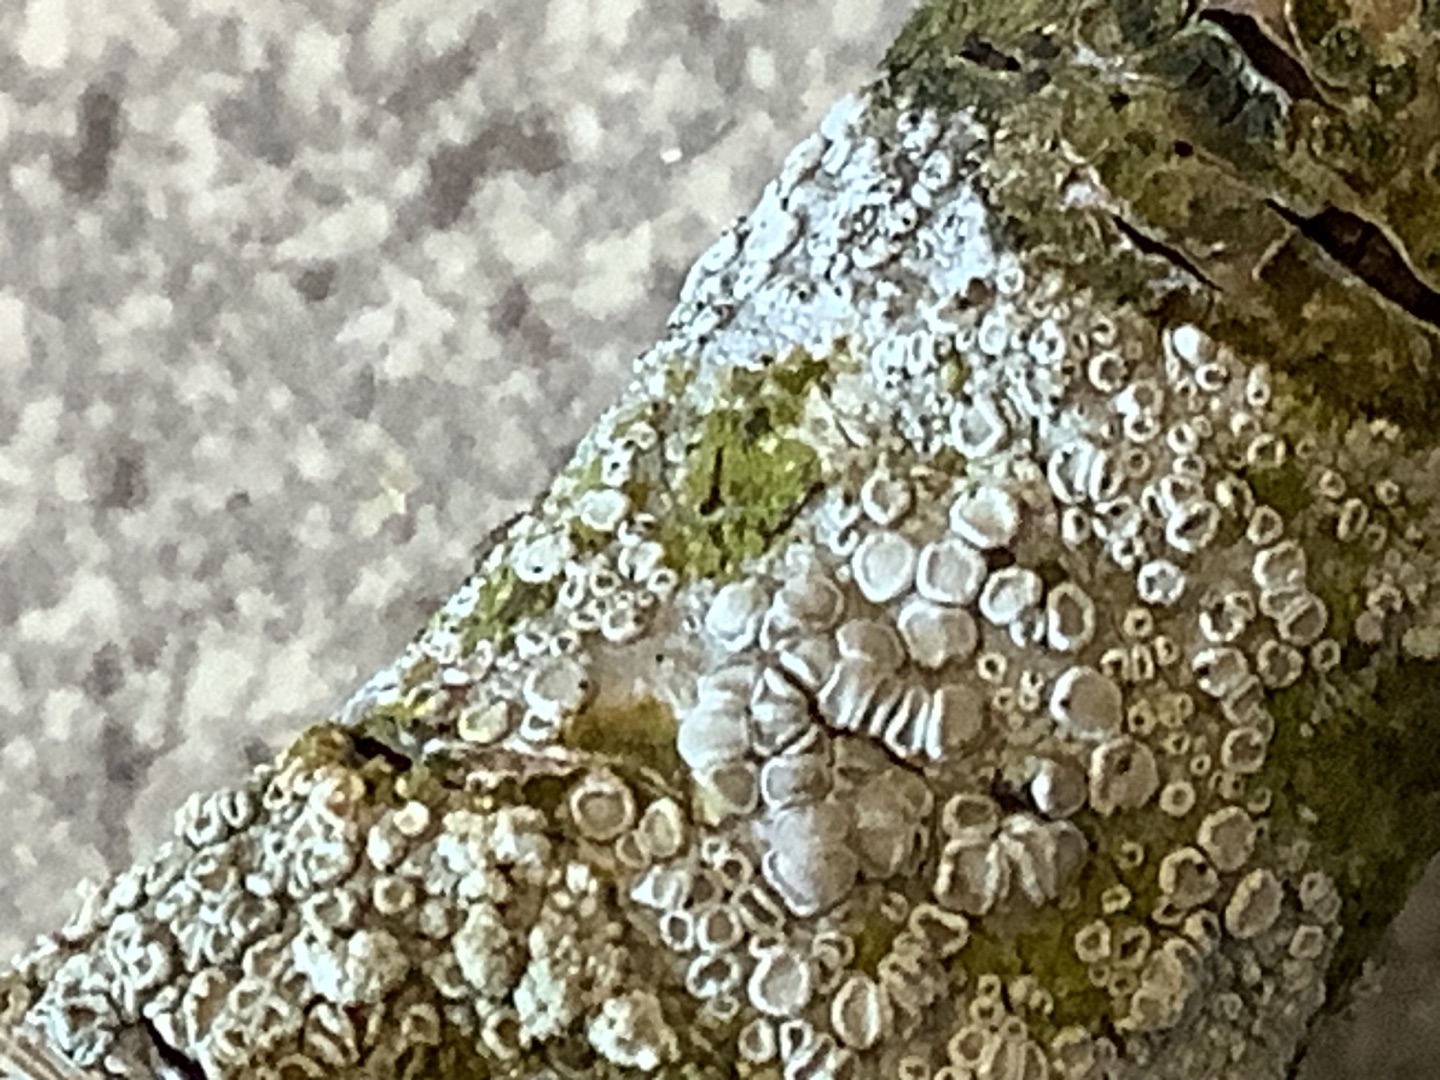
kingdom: Fungi
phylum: Ascomycota
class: Lecanoromycetes
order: Lecanorales
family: Lecanoraceae
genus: Lecanora
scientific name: Lecanora
